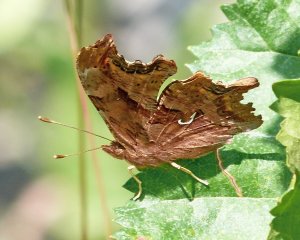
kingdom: Animalia
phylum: Arthropoda
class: Insecta
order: Lepidoptera
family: Nymphalidae
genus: Polygonia
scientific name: Polygonia satyrus
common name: Satyr Comma
